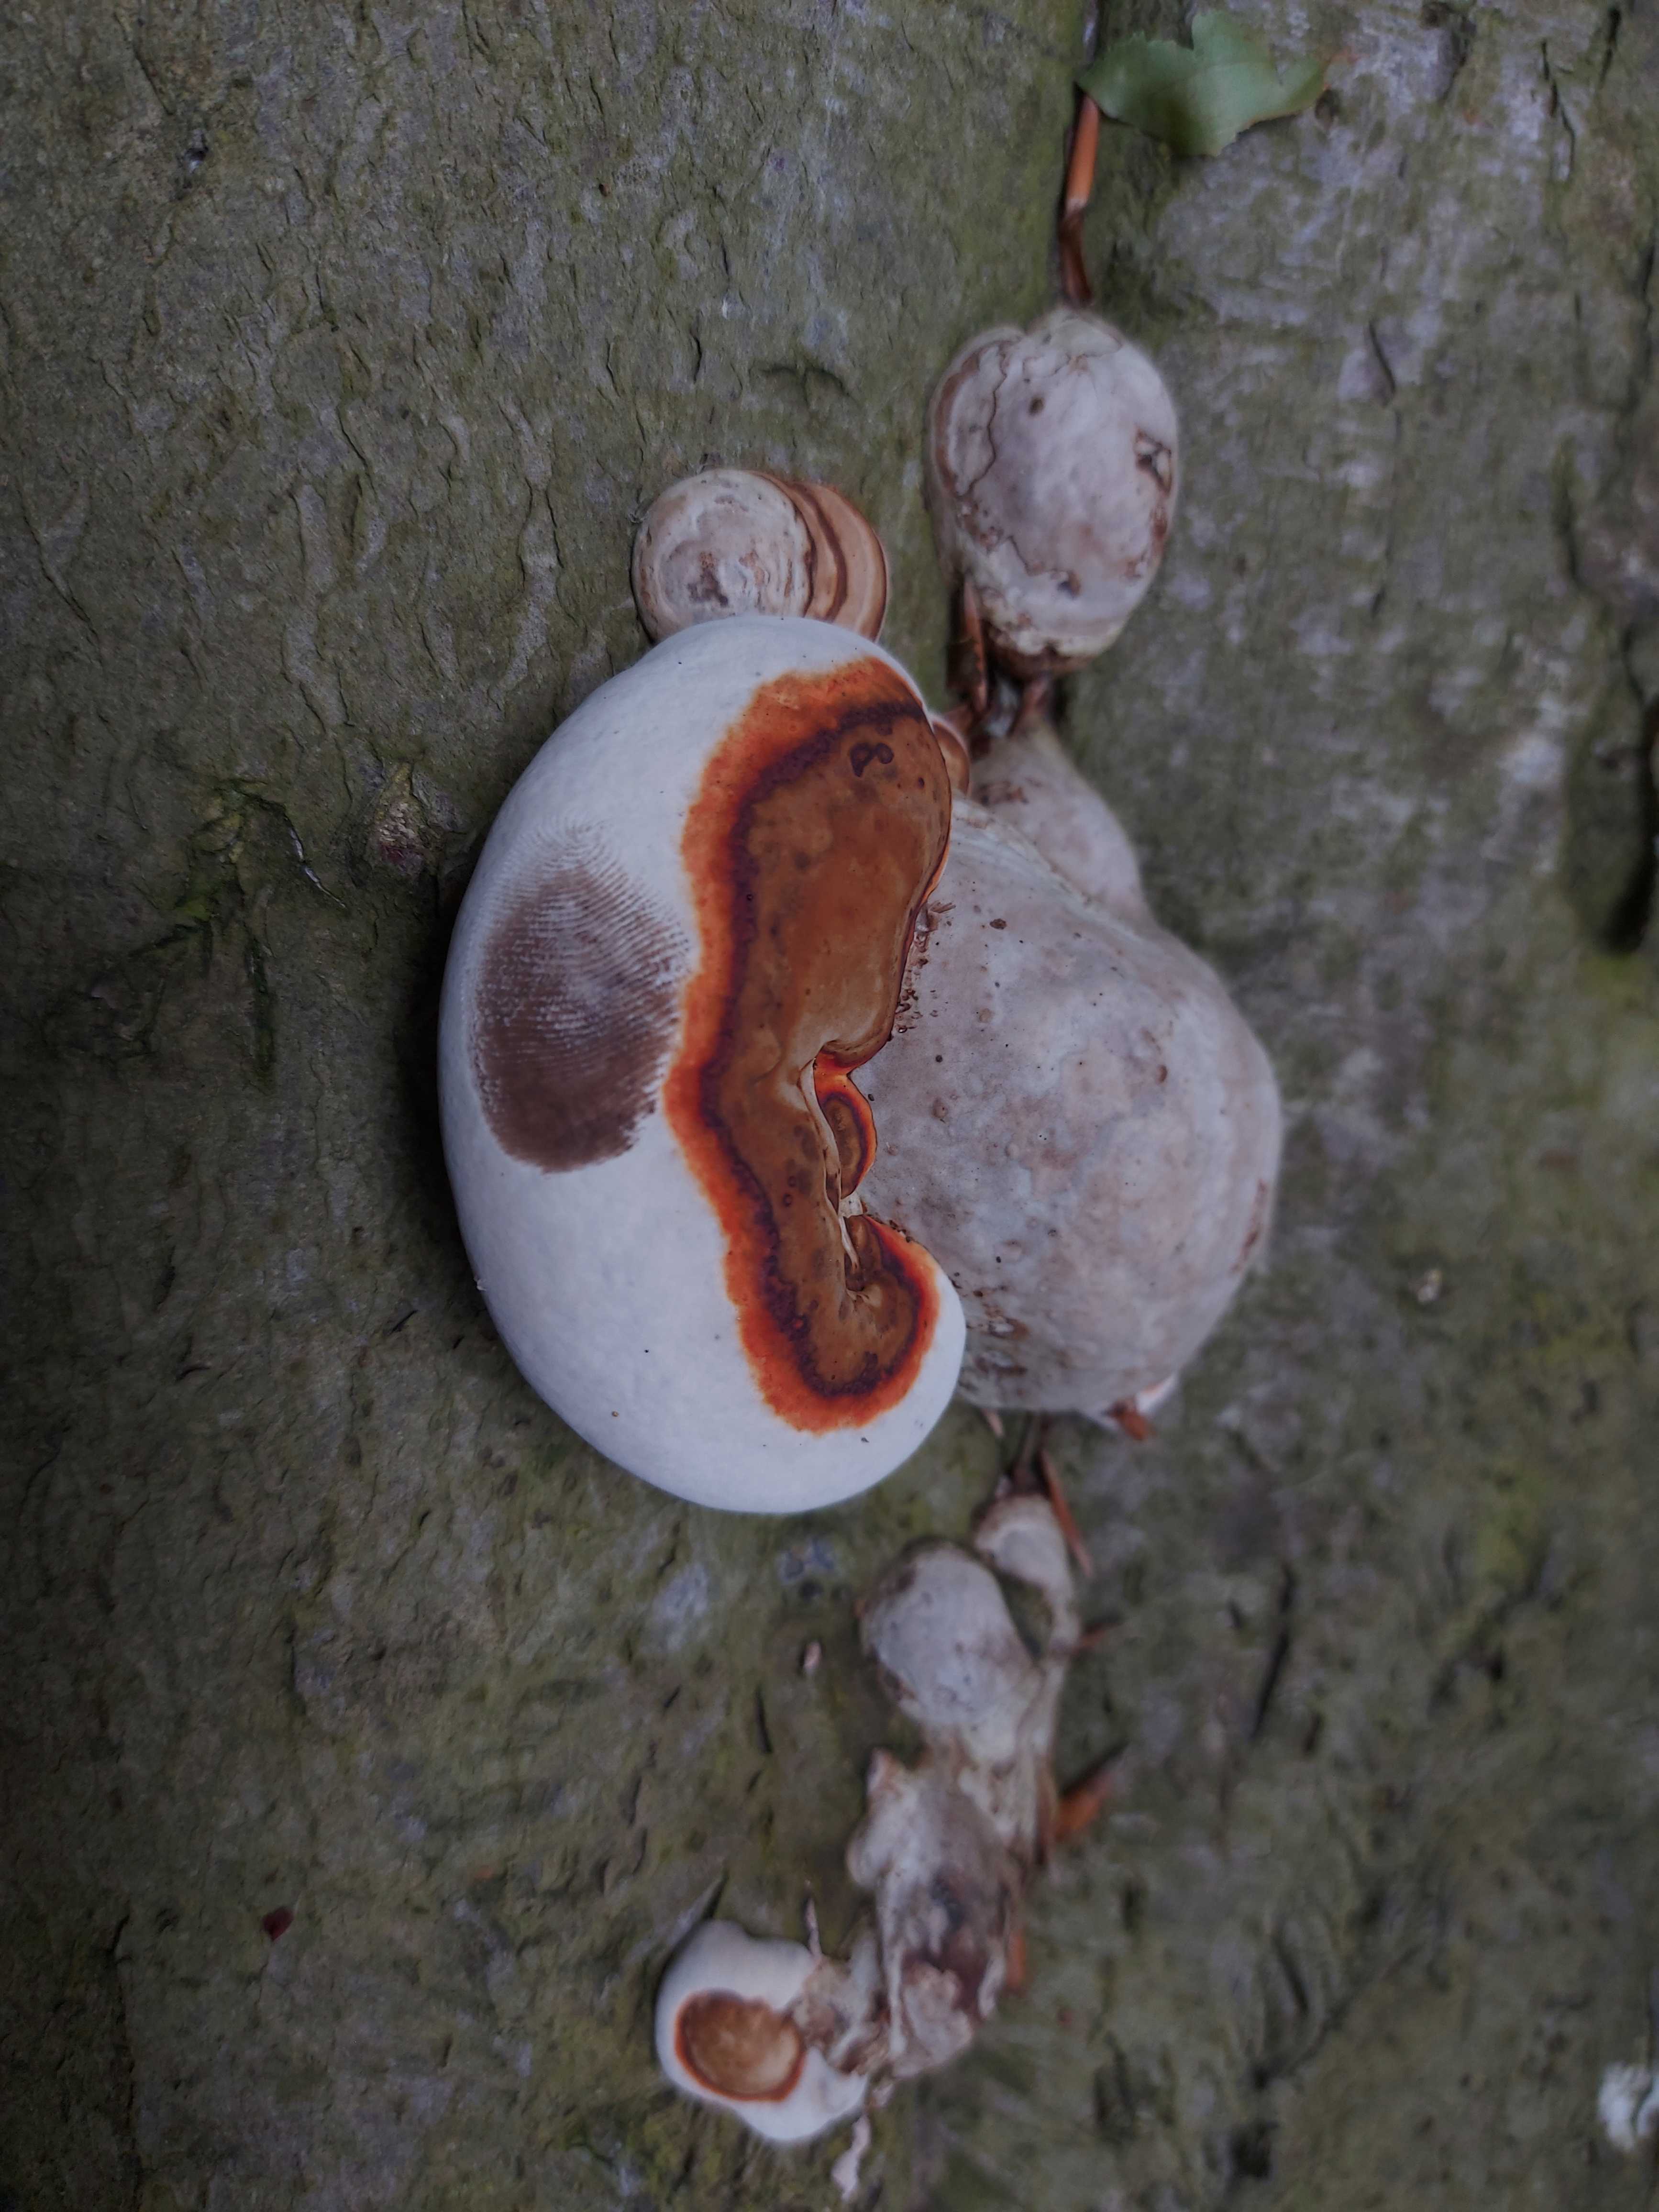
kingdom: Fungi
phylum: Basidiomycota
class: Agaricomycetes
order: Polyporales
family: Polyporaceae
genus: Fomes
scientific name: Fomes fomentarius
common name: tøndersvamp
